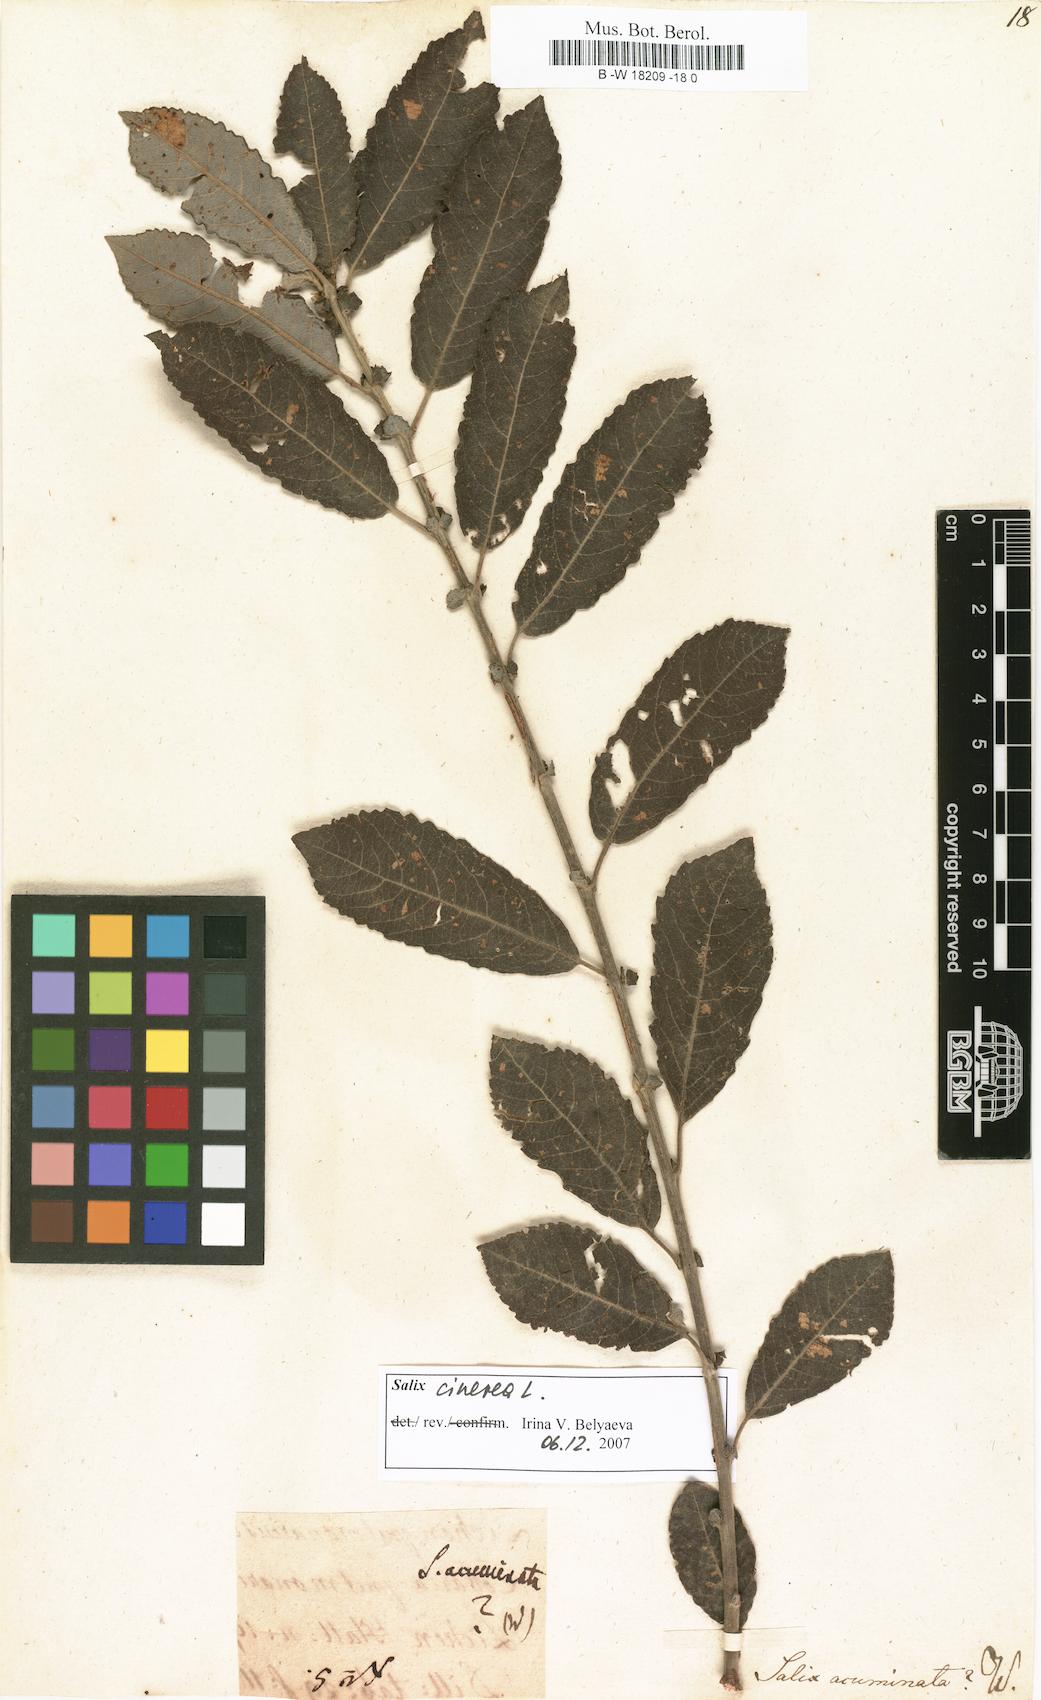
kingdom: Plantae
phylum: Tracheophyta
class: Magnoliopsida
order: Malpighiales
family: Salicaceae
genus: Salix
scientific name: Salix
